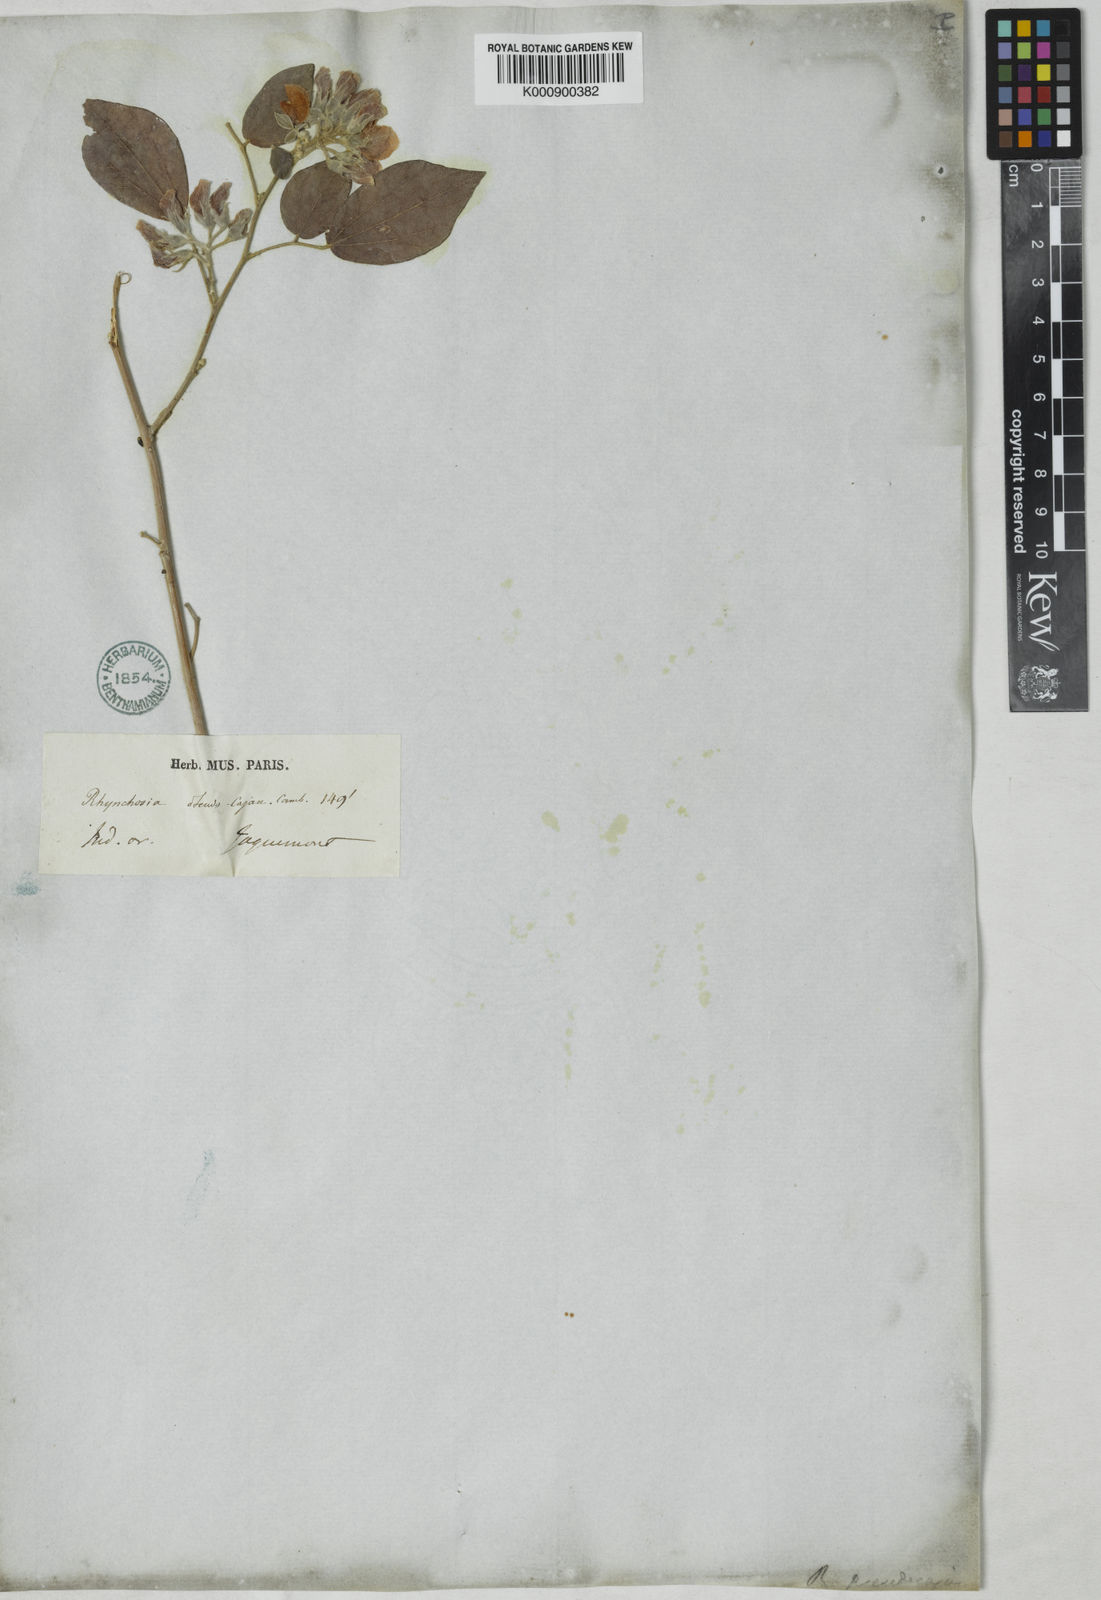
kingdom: Plantae
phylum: Tracheophyta
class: Magnoliopsida
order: Fabales
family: Fabaceae
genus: Rhynchosia
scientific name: Rhynchosia pseudocajan
